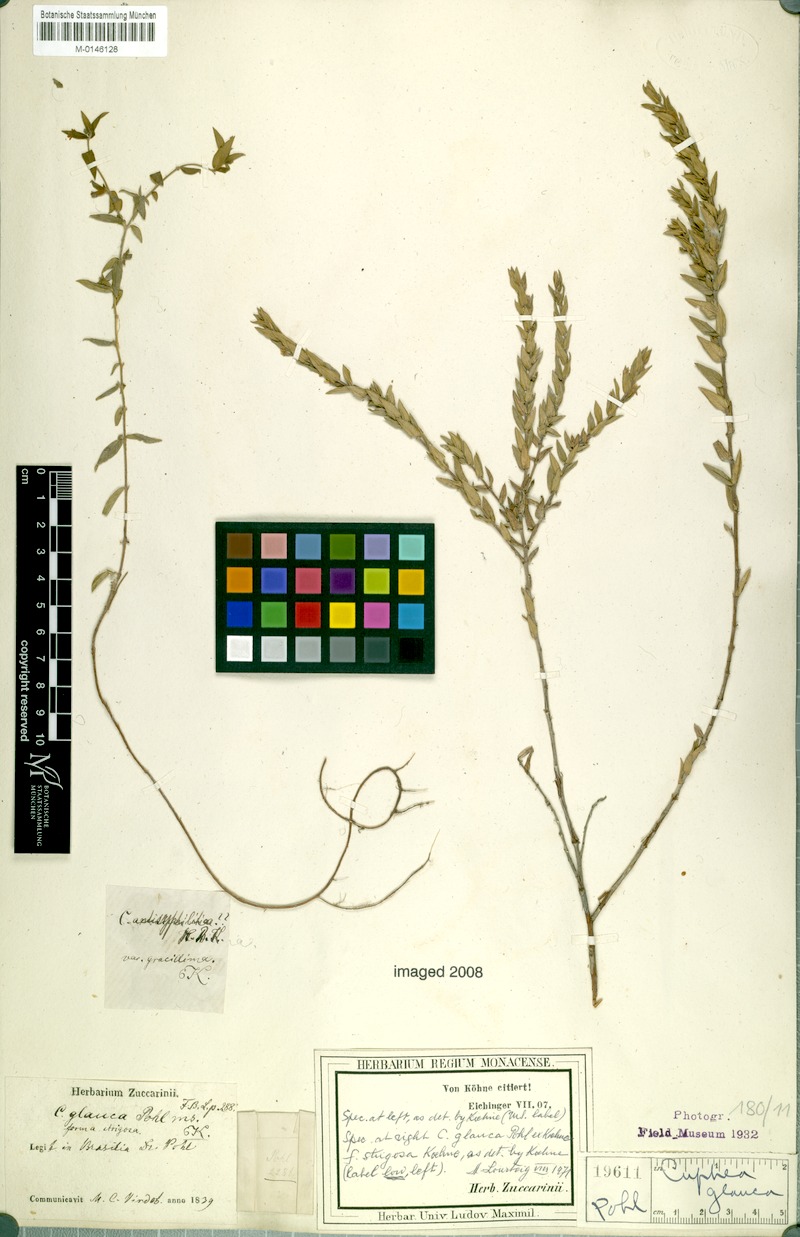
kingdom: Plantae
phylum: Tracheophyta
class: Magnoliopsida
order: Myrtales
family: Lythraceae
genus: Cuphea
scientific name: Cuphea glauca
